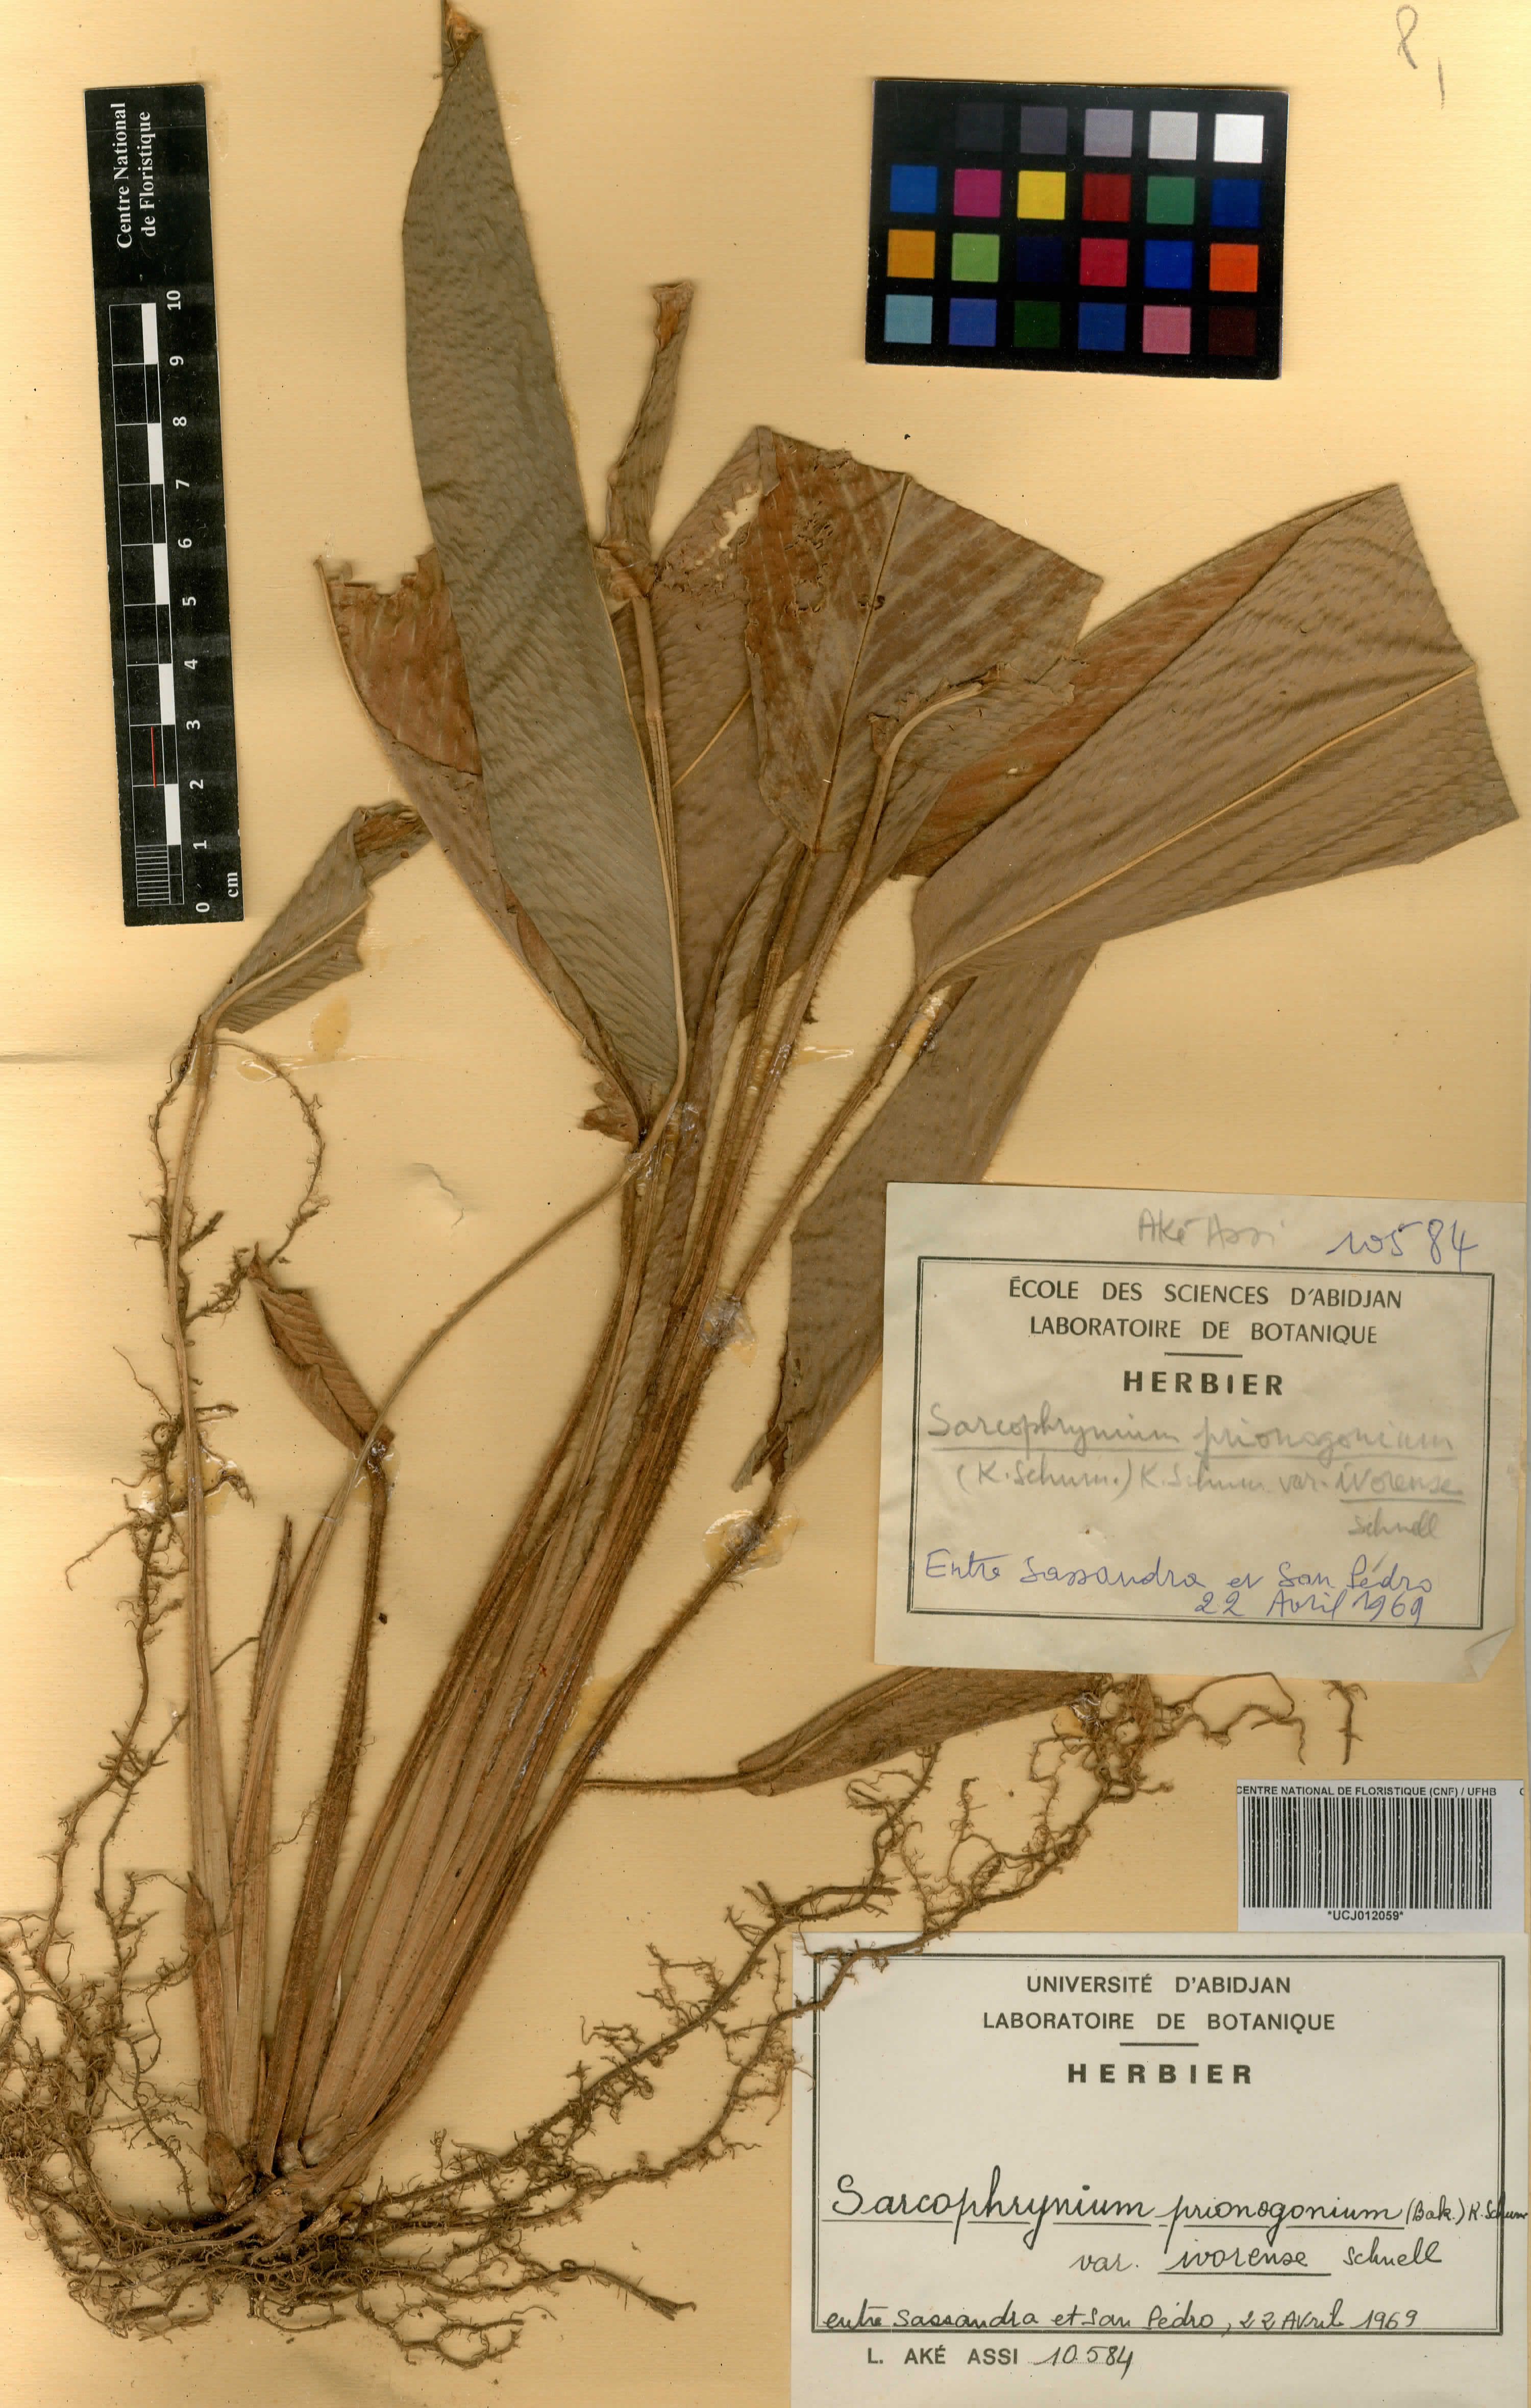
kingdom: Plantae
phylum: Tracheophyta
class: Liliopsida
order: Zingiberales
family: Marantaceae
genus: Sarcophrynium
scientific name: Sarcophrynium prionogonium
